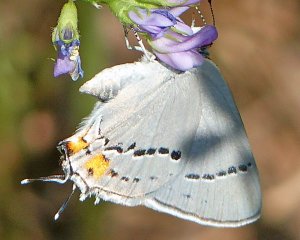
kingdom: Animalia
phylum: Arthropoda
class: Insecta
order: Lepidoptera
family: Lycaenidae
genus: Strymon
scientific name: Strymon melinus
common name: Gray Hairstreak
